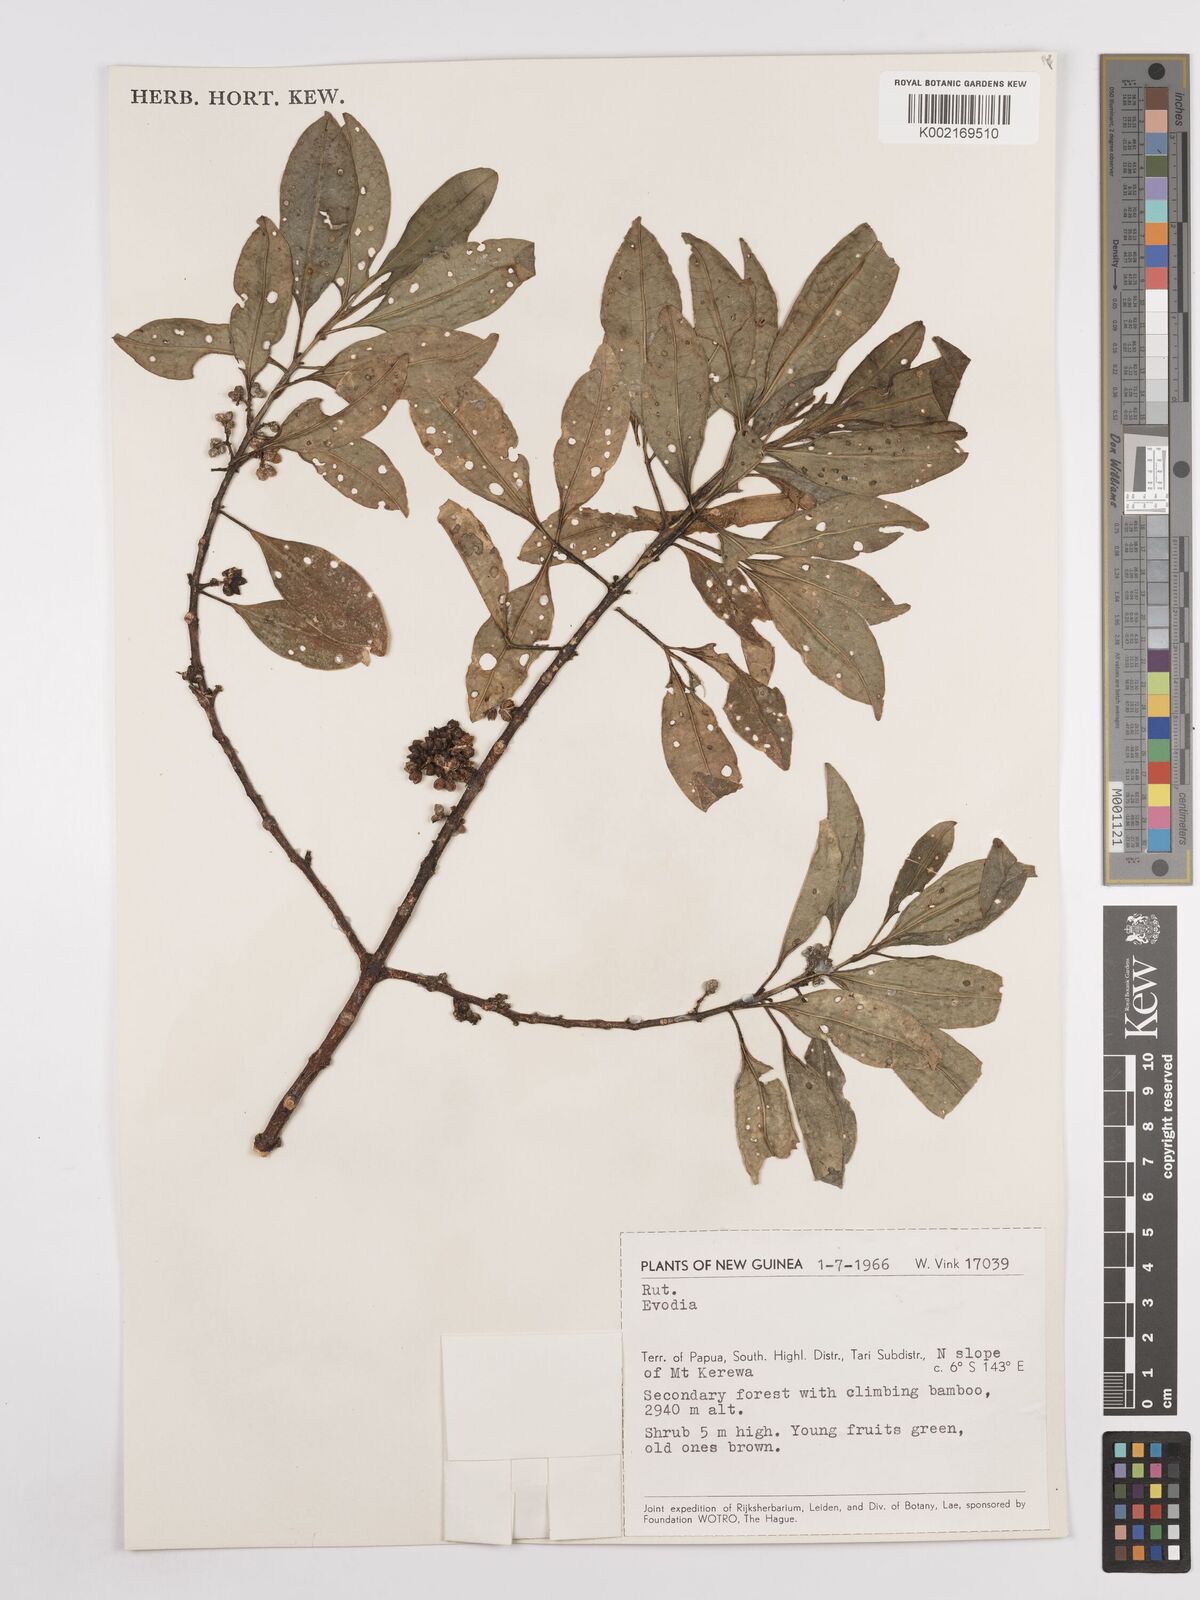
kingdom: Plantae
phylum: Tracheophyta
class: Magnoliopsida
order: Sapindales
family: Rutaceae
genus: Euodia
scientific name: Euodia
